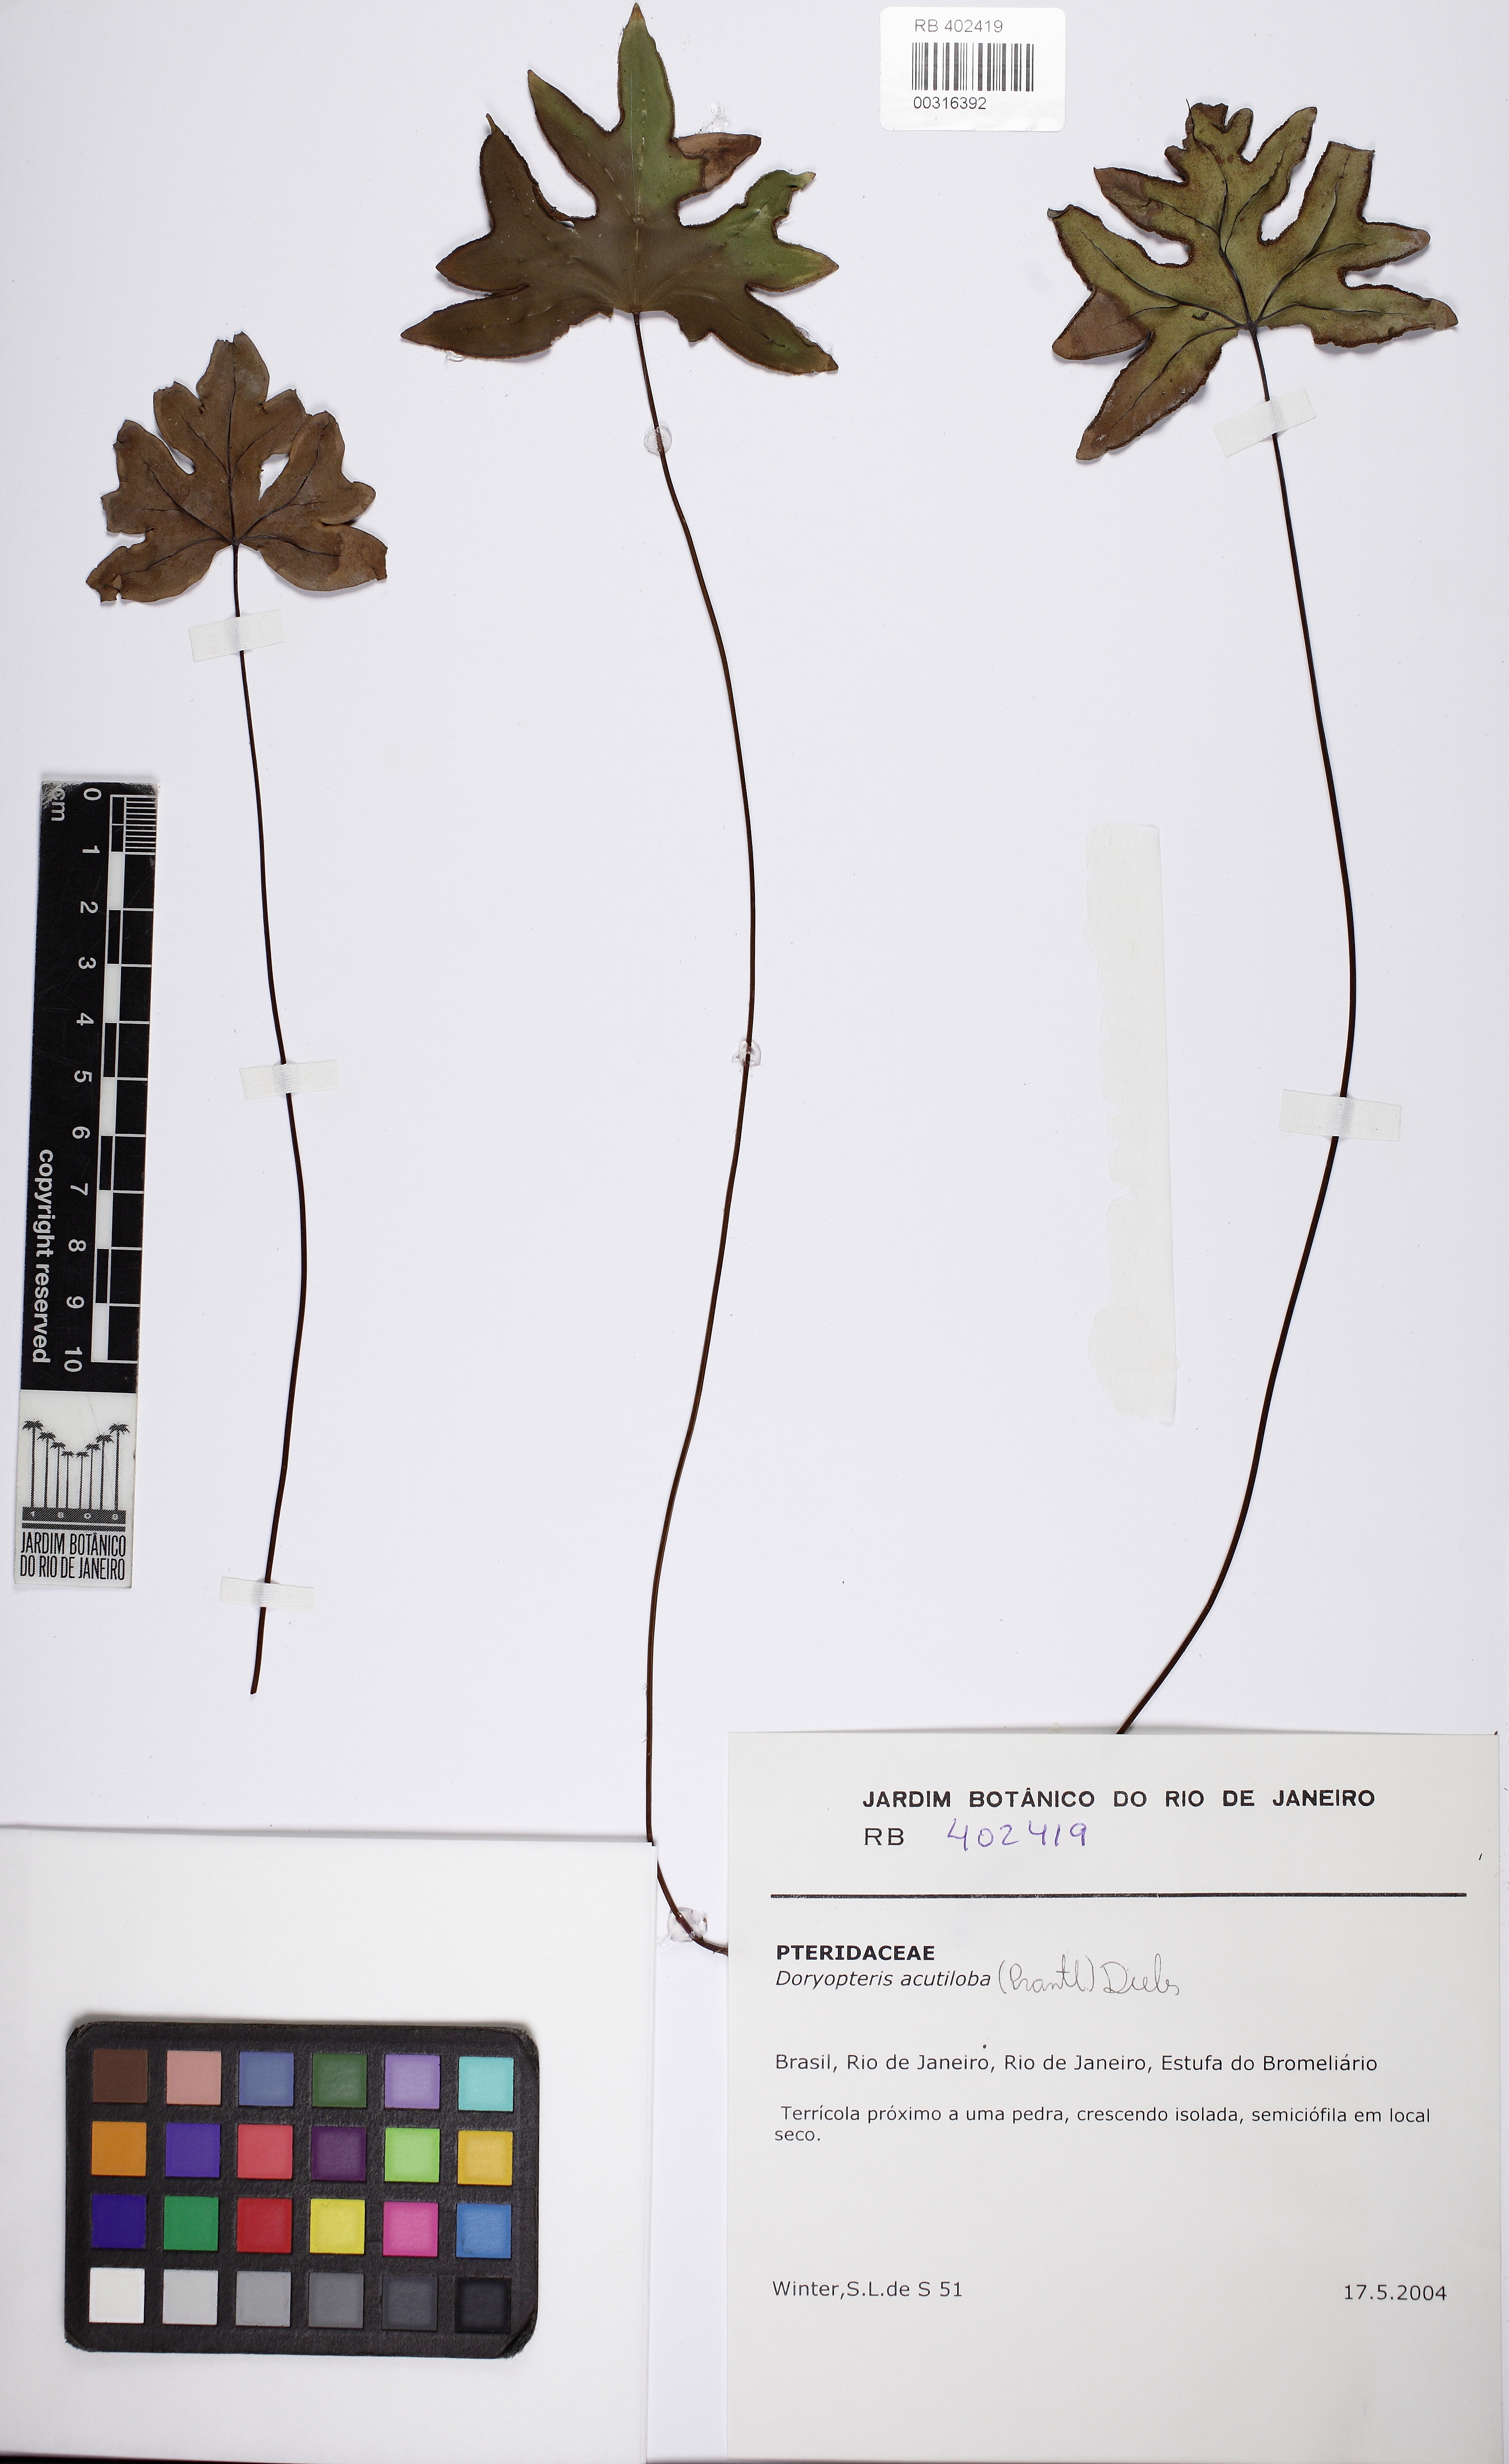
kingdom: Plantae
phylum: Tracheophyta
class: Polypodiopsida
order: Polypodiales
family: Pteridaceae
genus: Doryopteris
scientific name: Doryopteris collina
